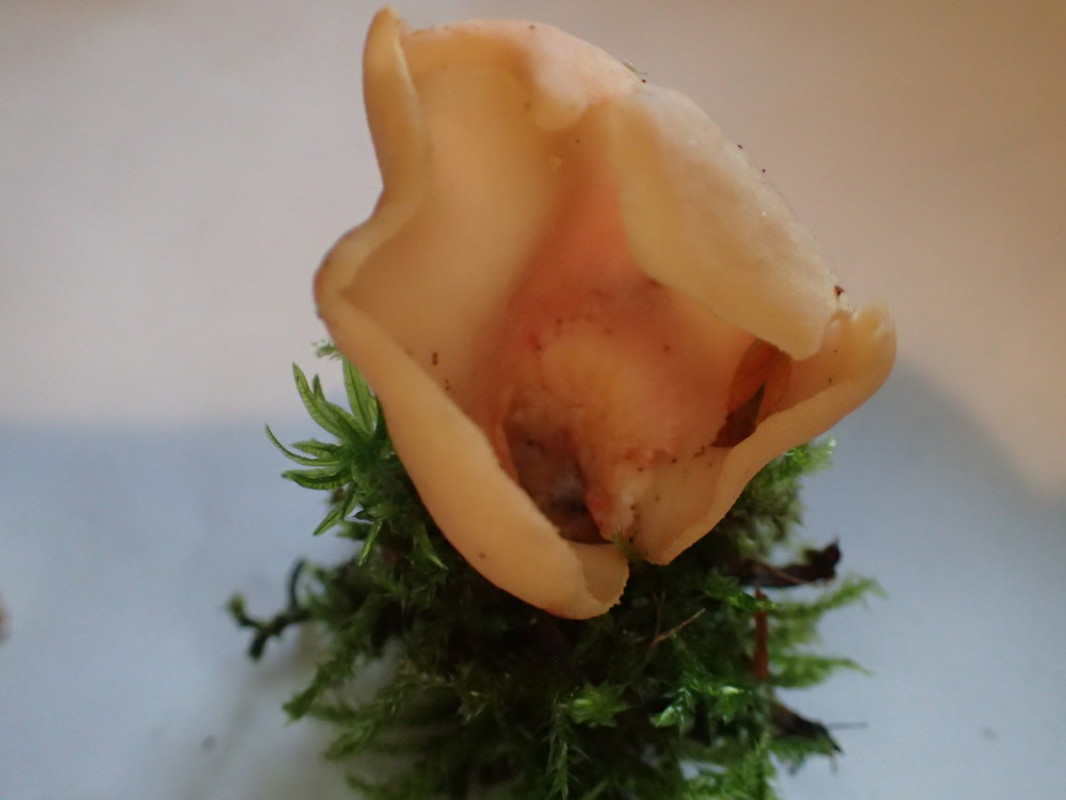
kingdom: Fungi
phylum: Ascomycota
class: Pezizomycetes
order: Pezizales
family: Otideaceae
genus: Otidea
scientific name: Otidea onotica
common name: æsel-ørebæger
